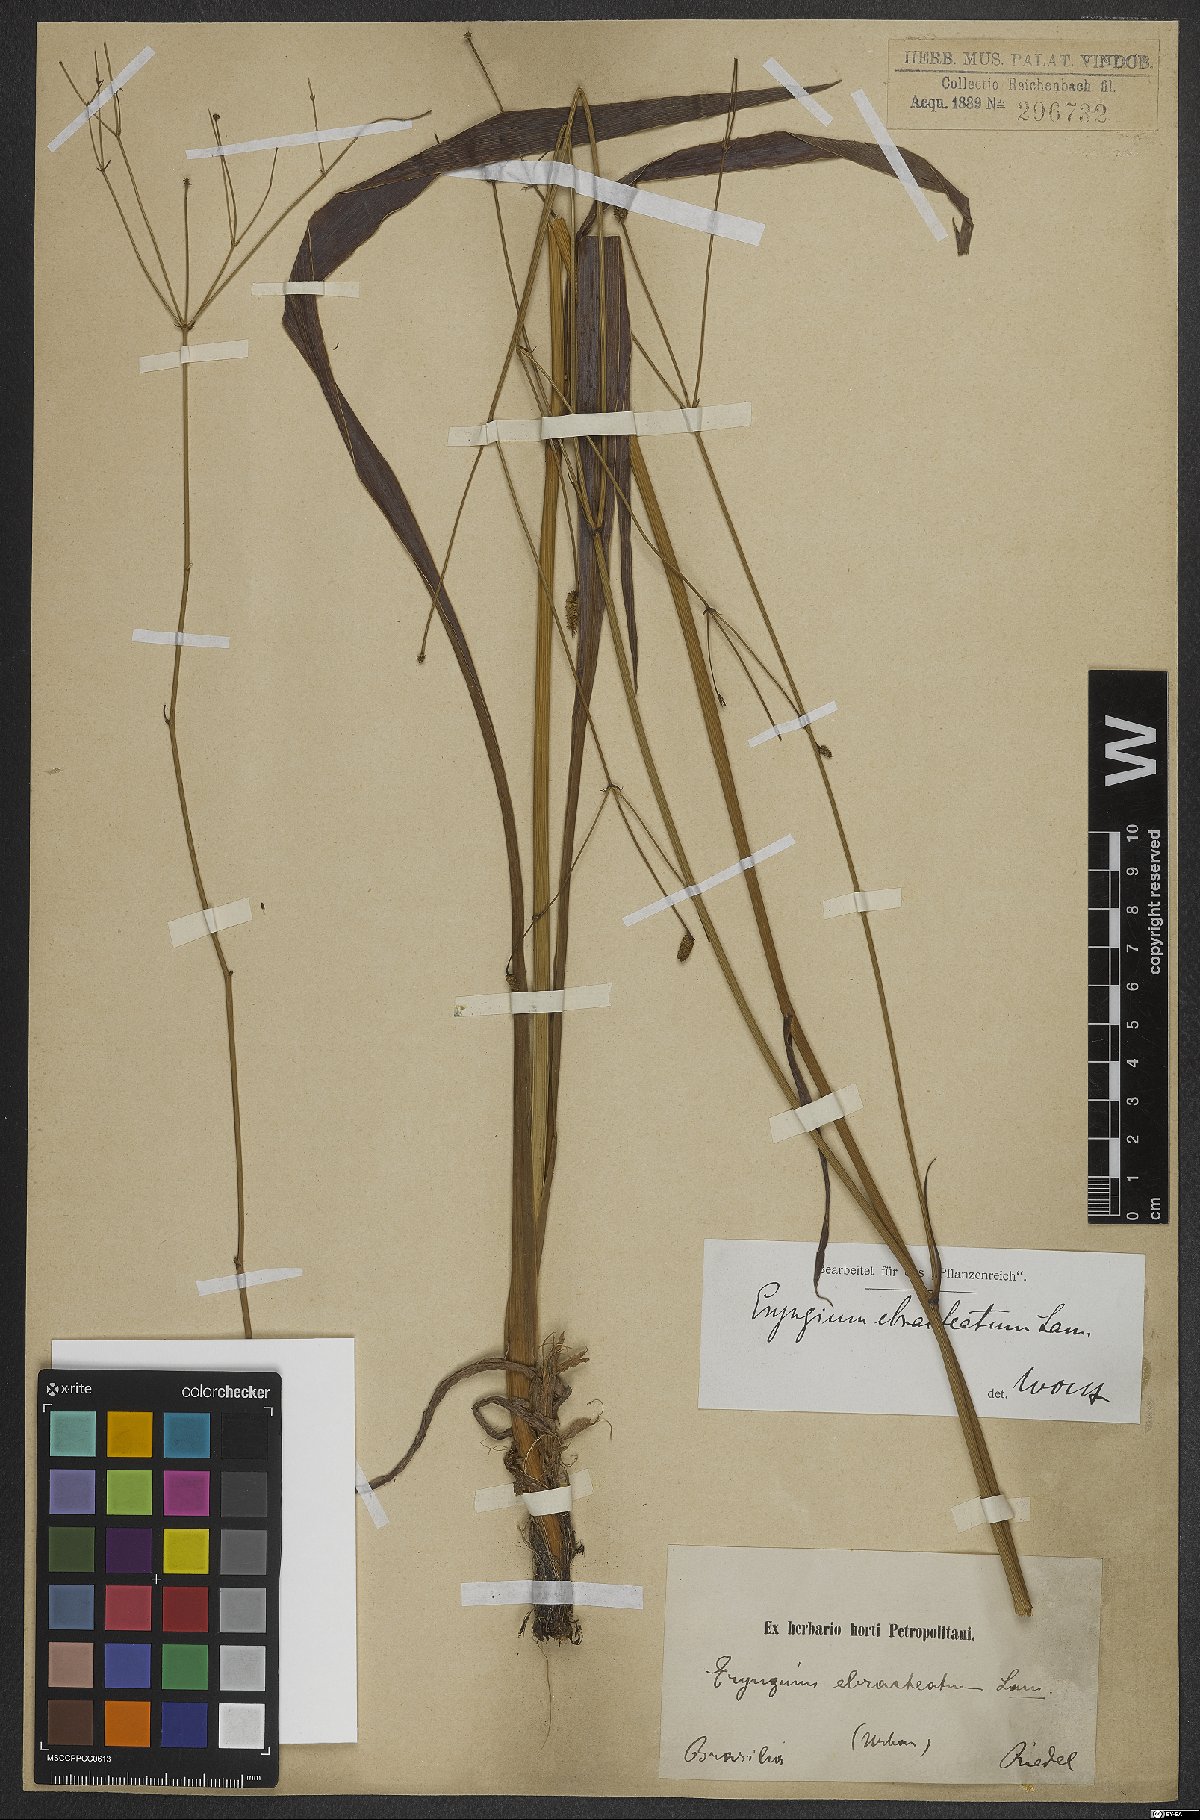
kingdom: Plantae
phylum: Tracheophyta
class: Magnoliopsida
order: Apiales
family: Apiaceae
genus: Eryngium
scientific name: Eryngium ebracteatum
